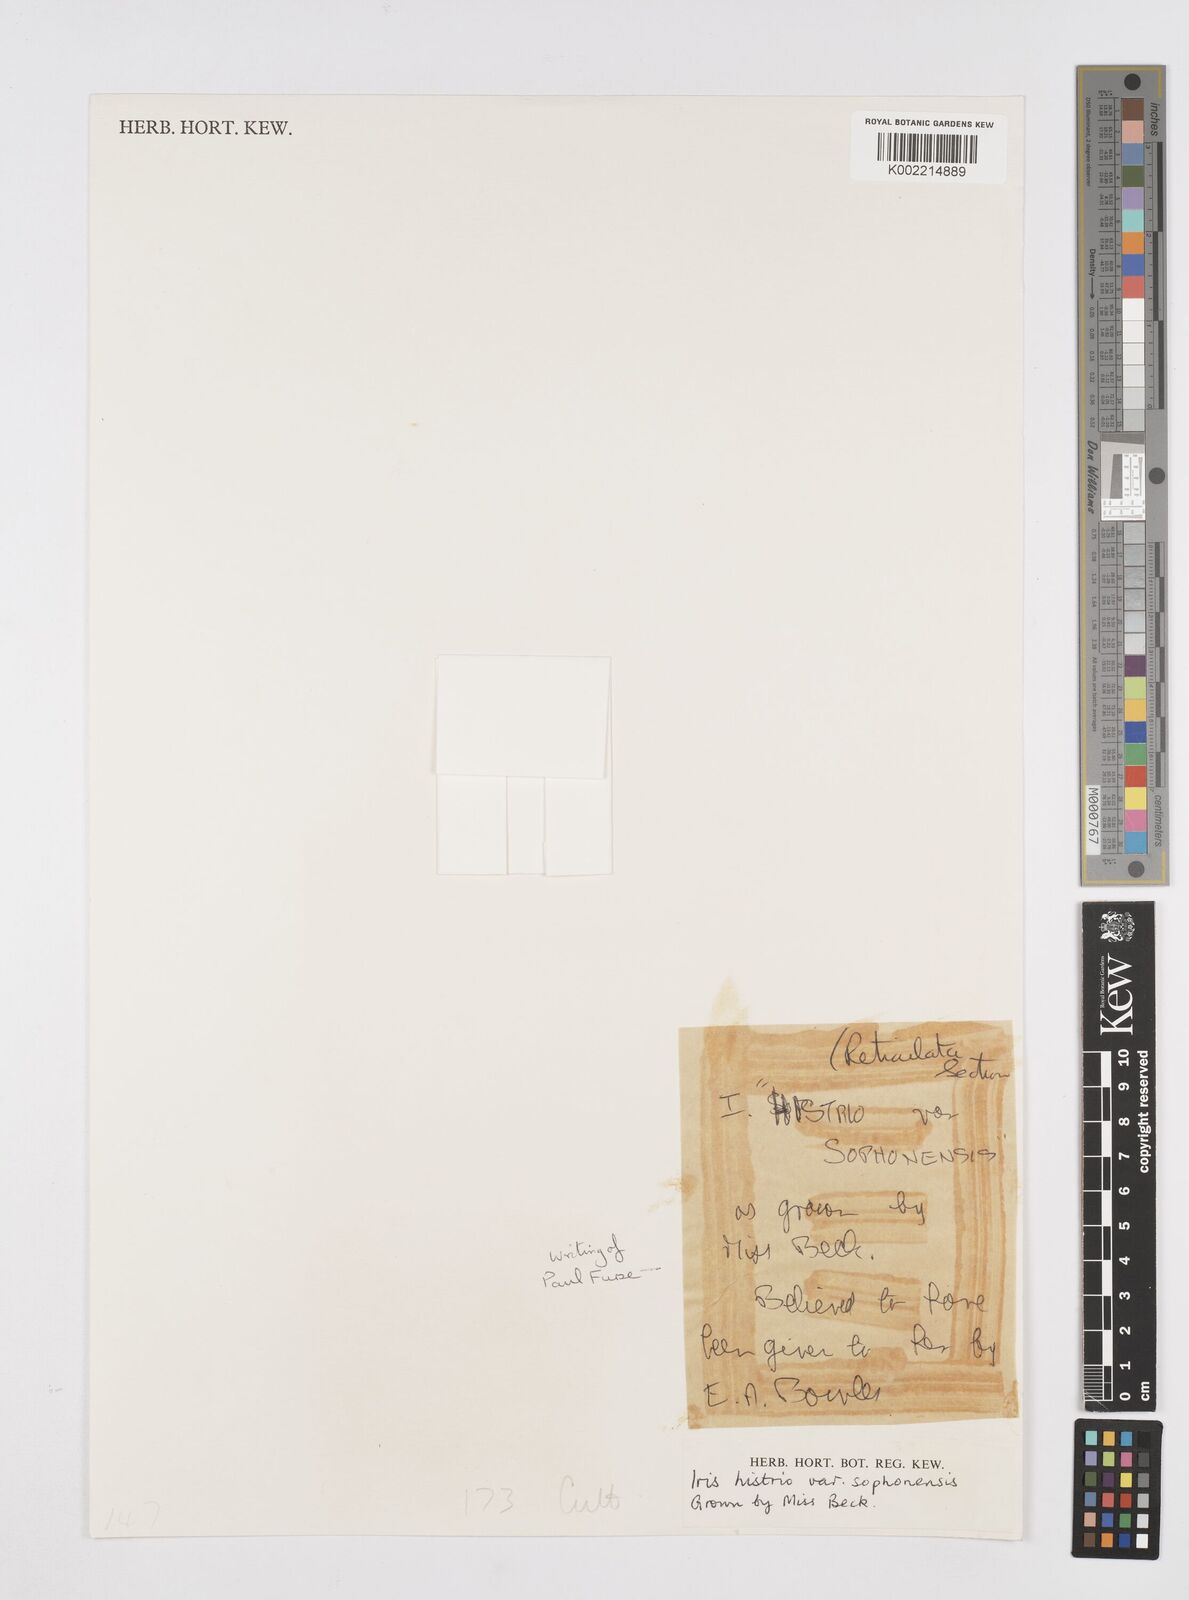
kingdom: Plantae
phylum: Tracheophyta
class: Liliopsida
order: Asparagales
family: Iridaceae
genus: Iris
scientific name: Iris sophenensis
